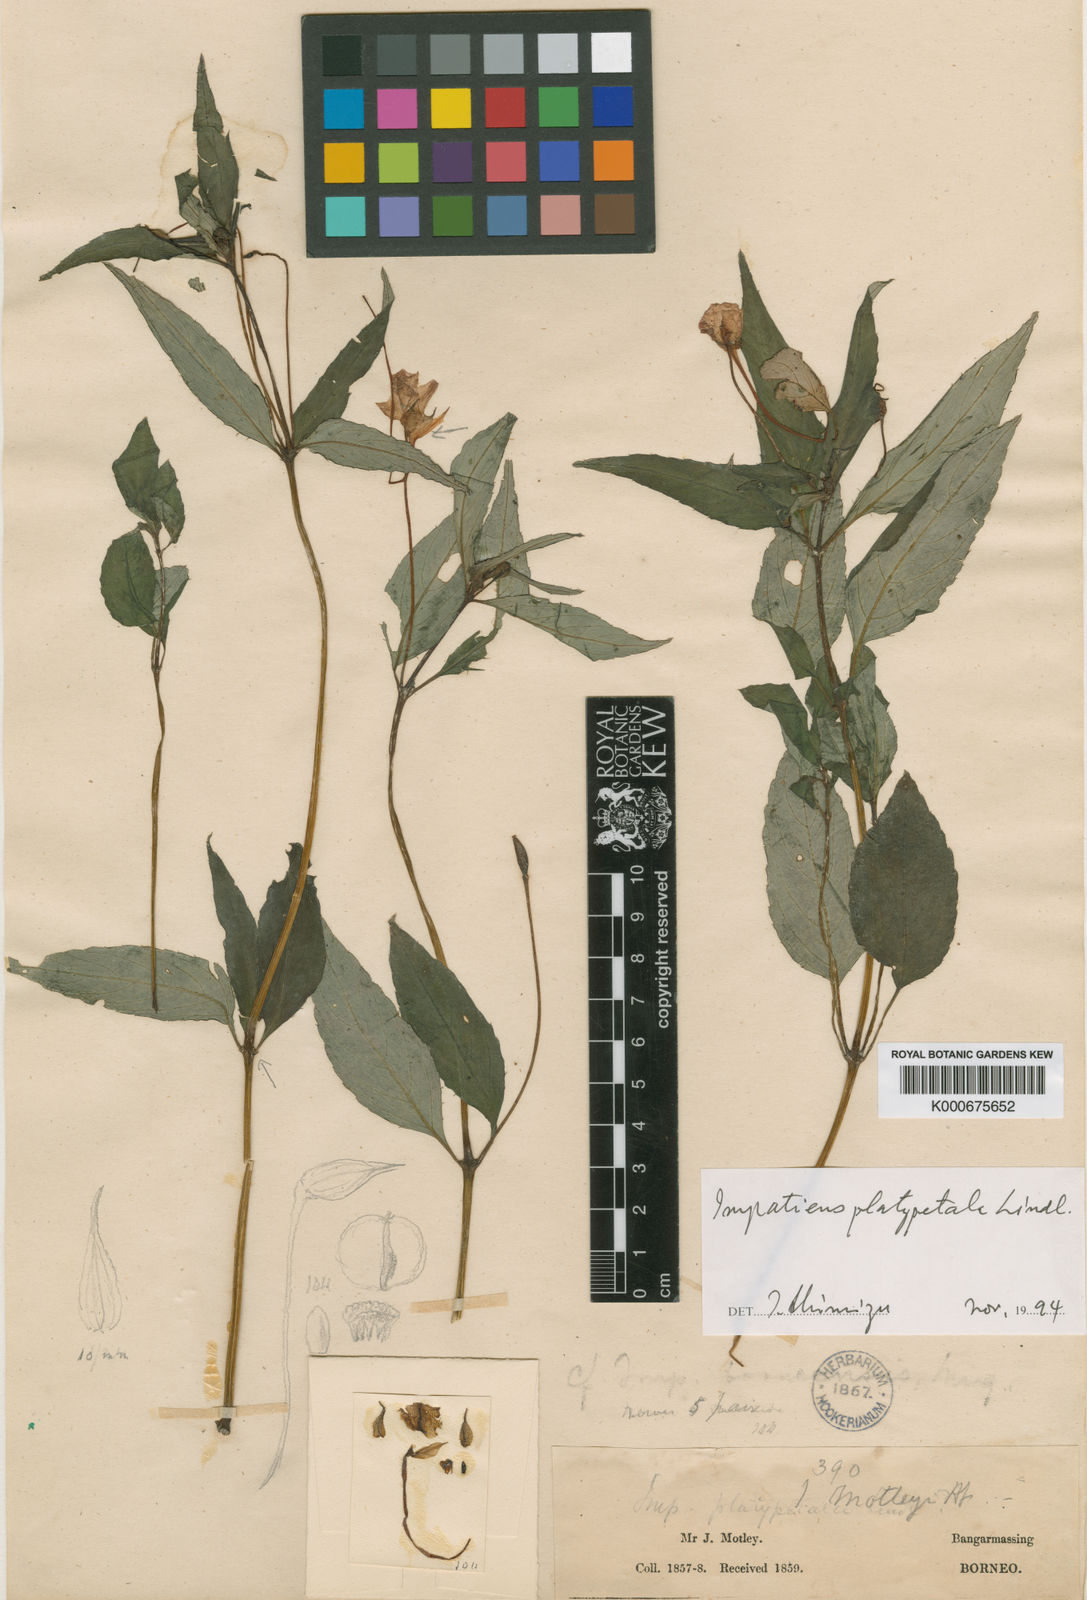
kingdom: Plantae
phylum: Tracheophyta
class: Magnoliopsida
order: Ericales
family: Balsaminaceae
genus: Impatiens
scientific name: Impatiens cyclocoma
